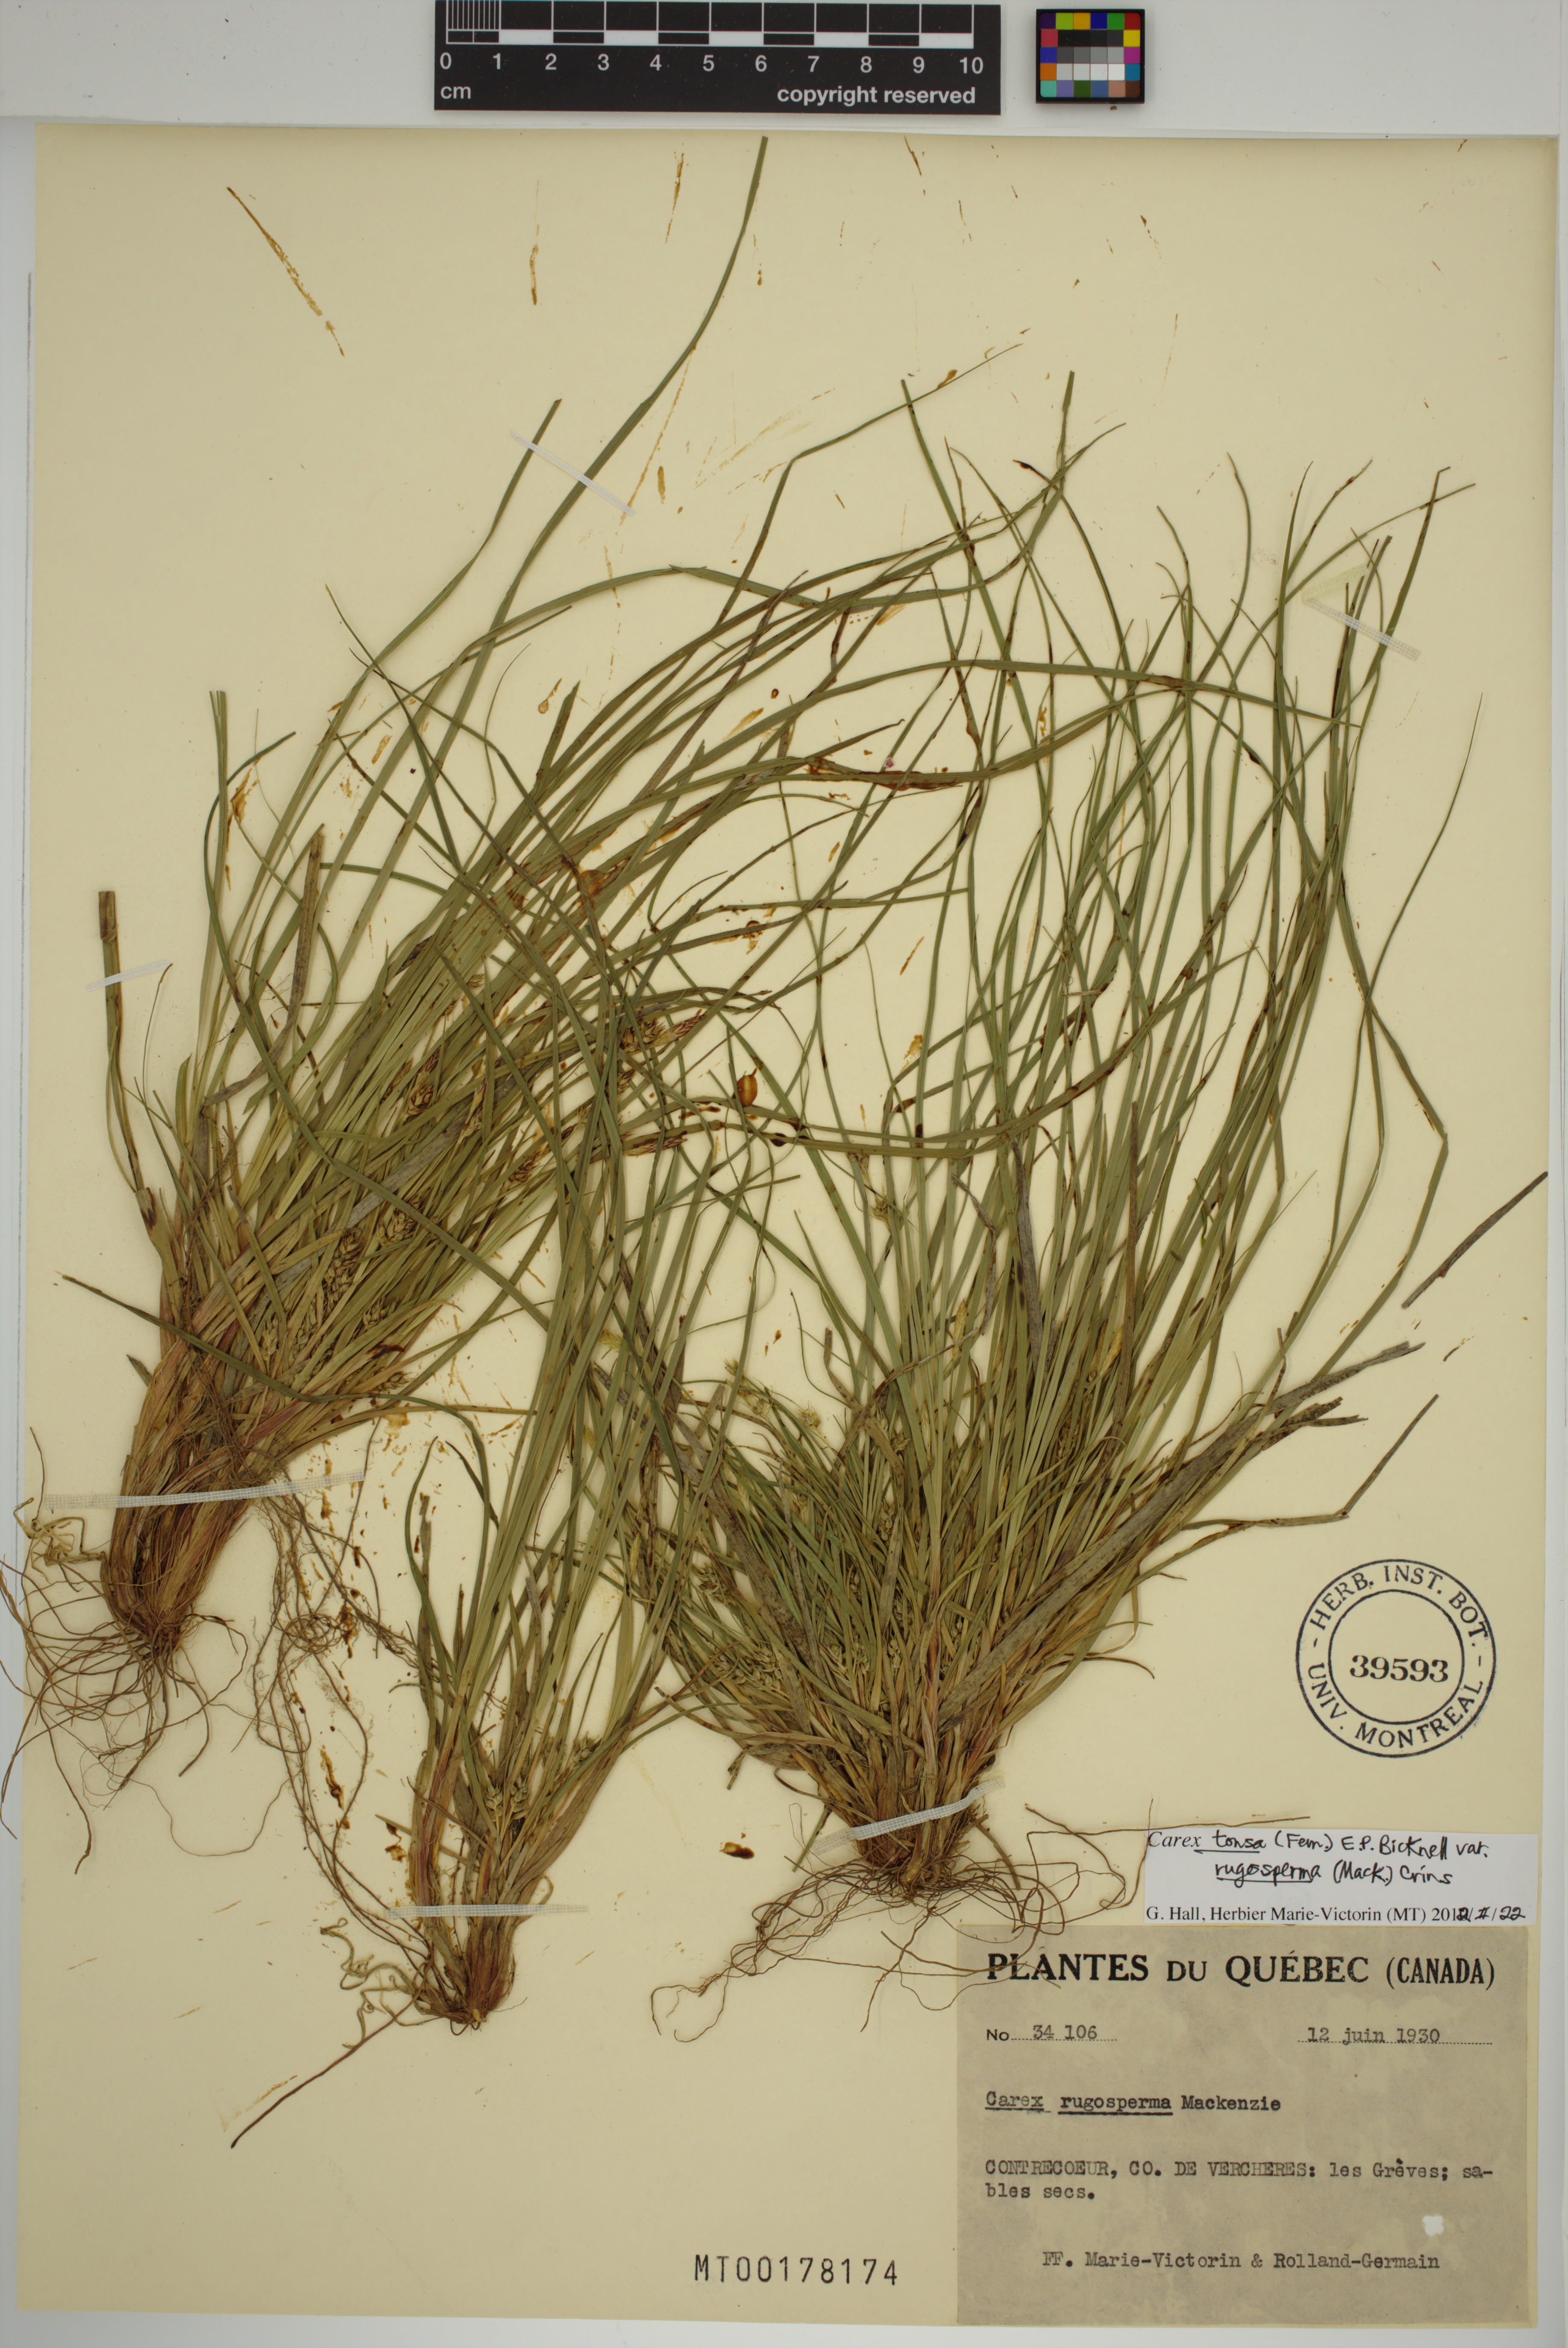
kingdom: Plantae
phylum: Tracheophyta
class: Liliopsida
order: Poales
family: Cyperaceae
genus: Carex
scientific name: Carex tonsa
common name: Bald sedge
